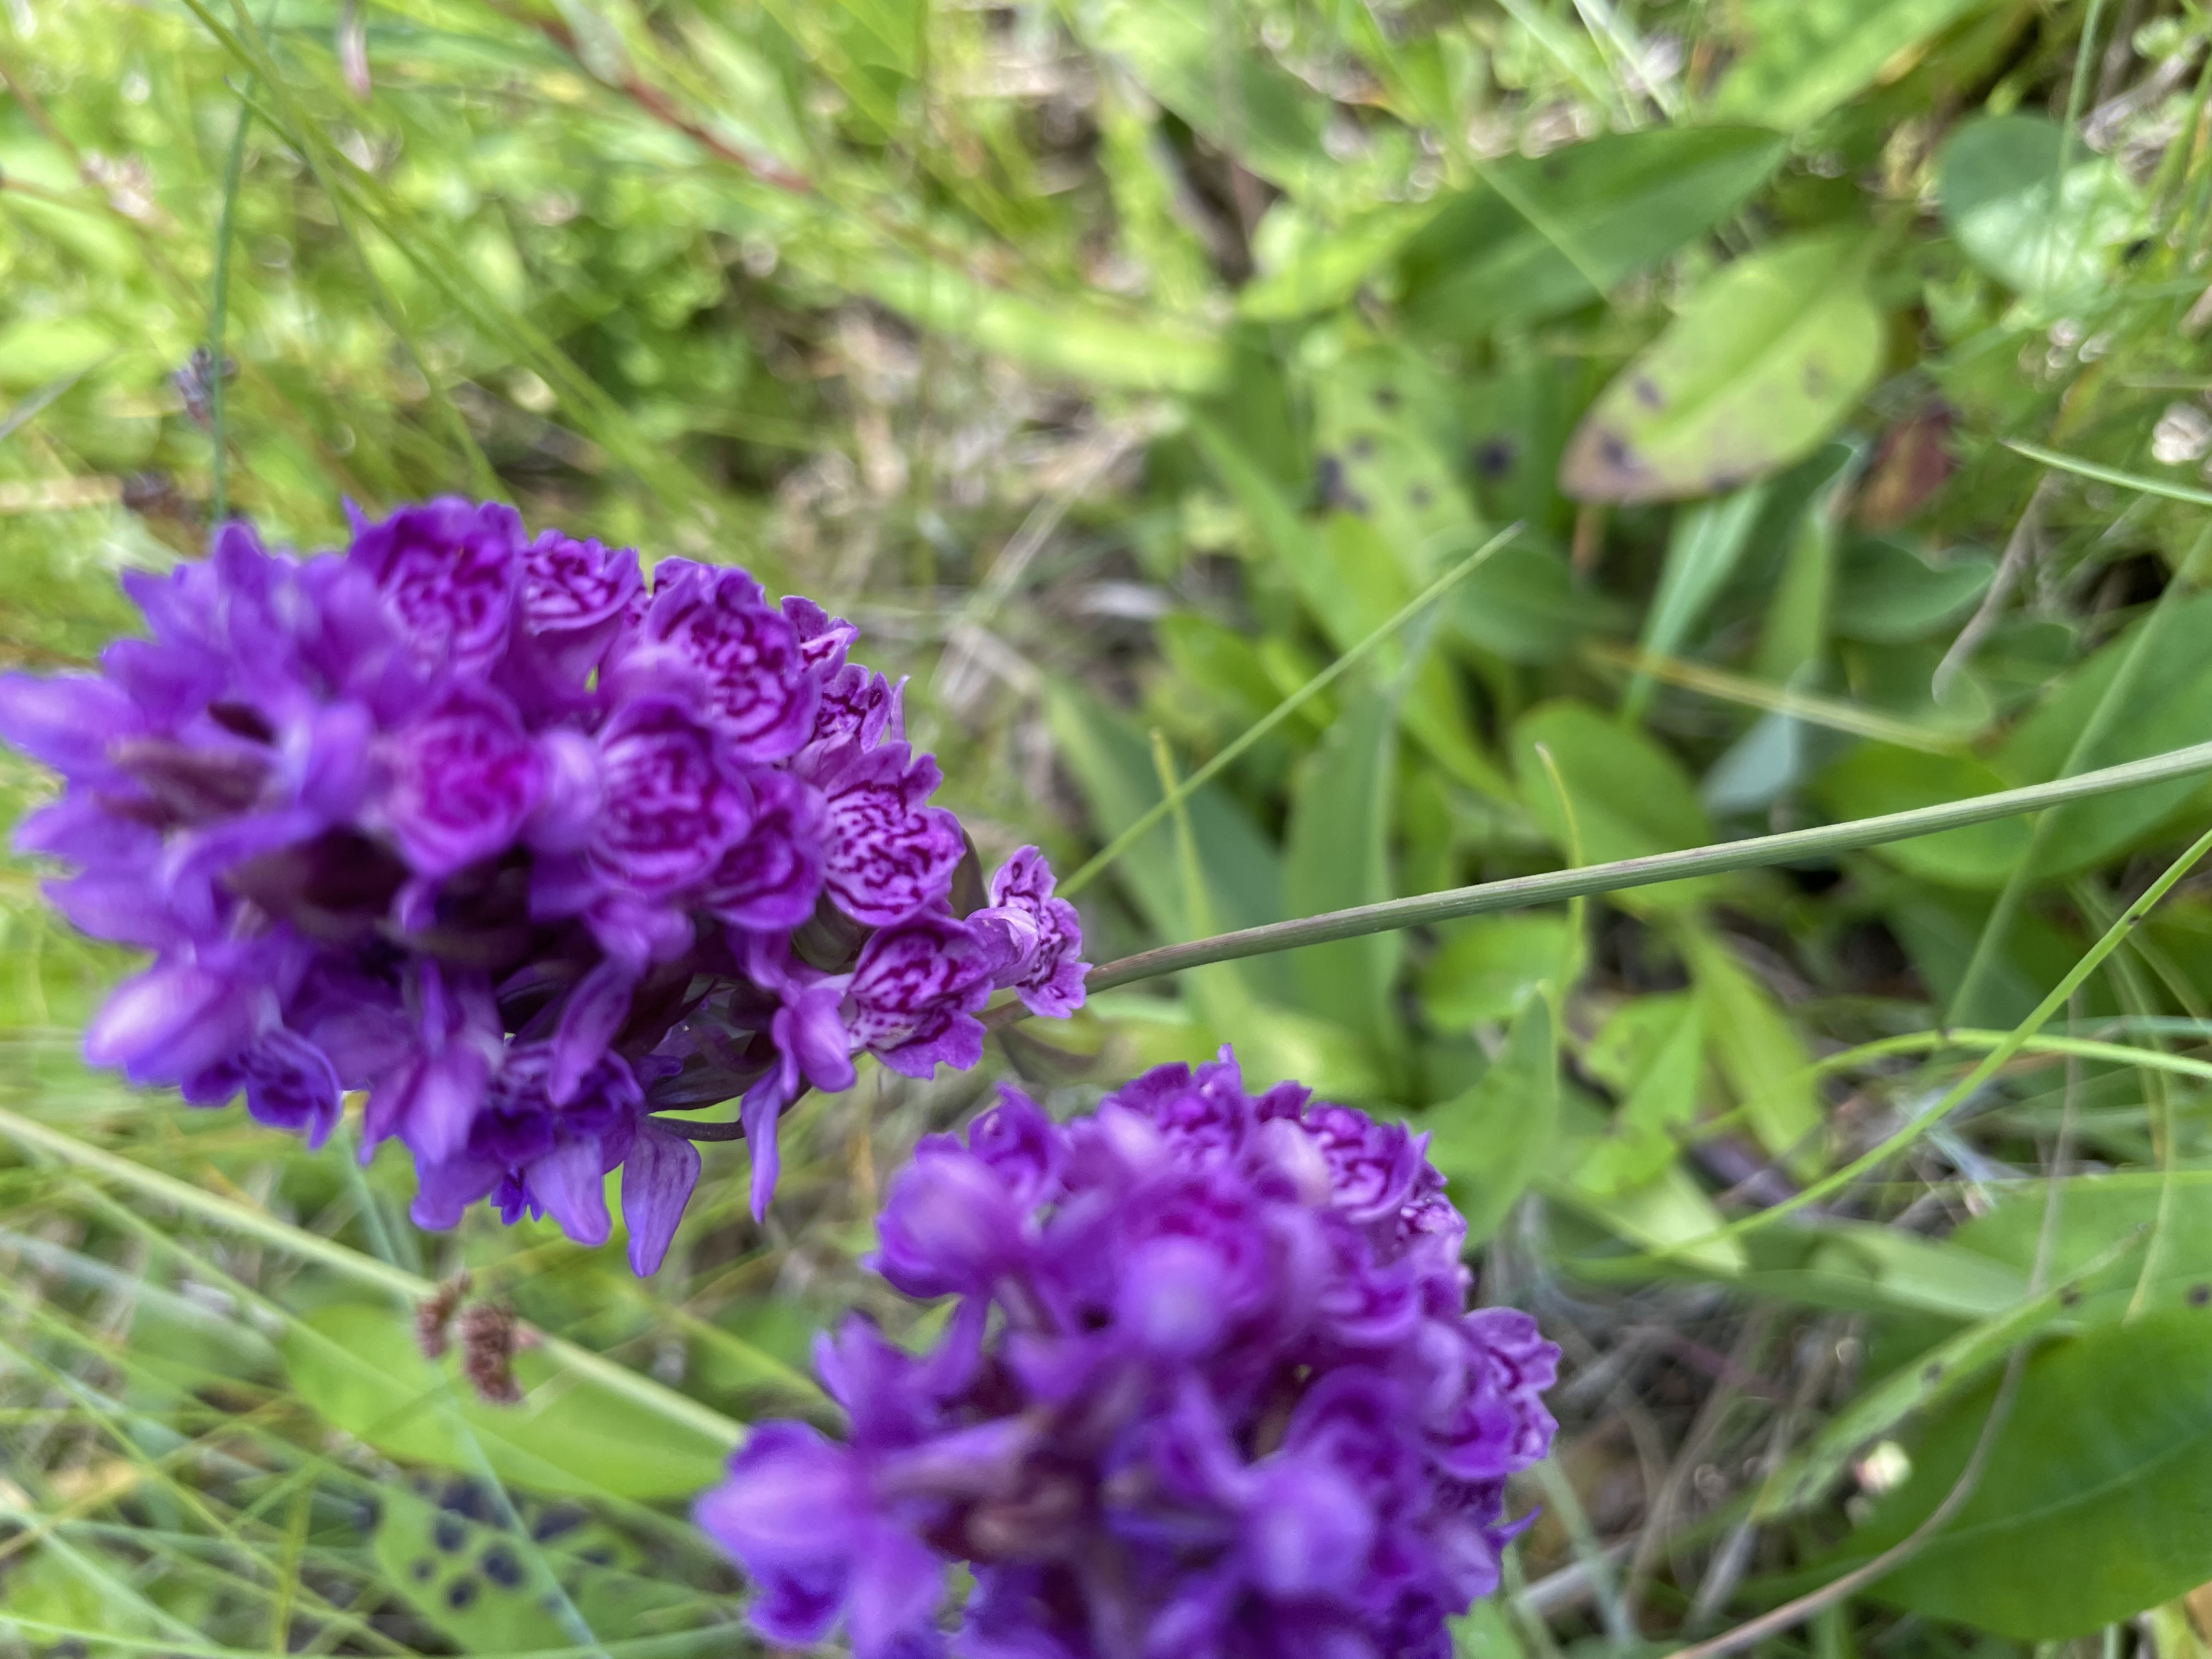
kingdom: Plantae
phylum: Tracheophyta
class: Liliopsida
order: Asparagales
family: Orchidaceae
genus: Dactylorhiza
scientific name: Dactylorhiza majalis
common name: Purpur-gøgeurt
